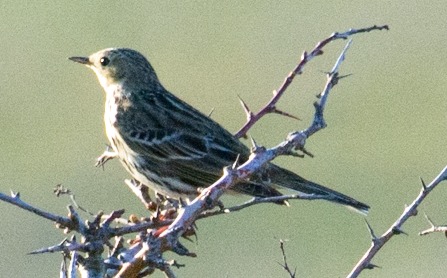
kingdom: Animalia
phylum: Chordata
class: Aves
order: Passeriformes
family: Motacillidae
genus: Anthus
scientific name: Anthus pratensis
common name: Engpiber
